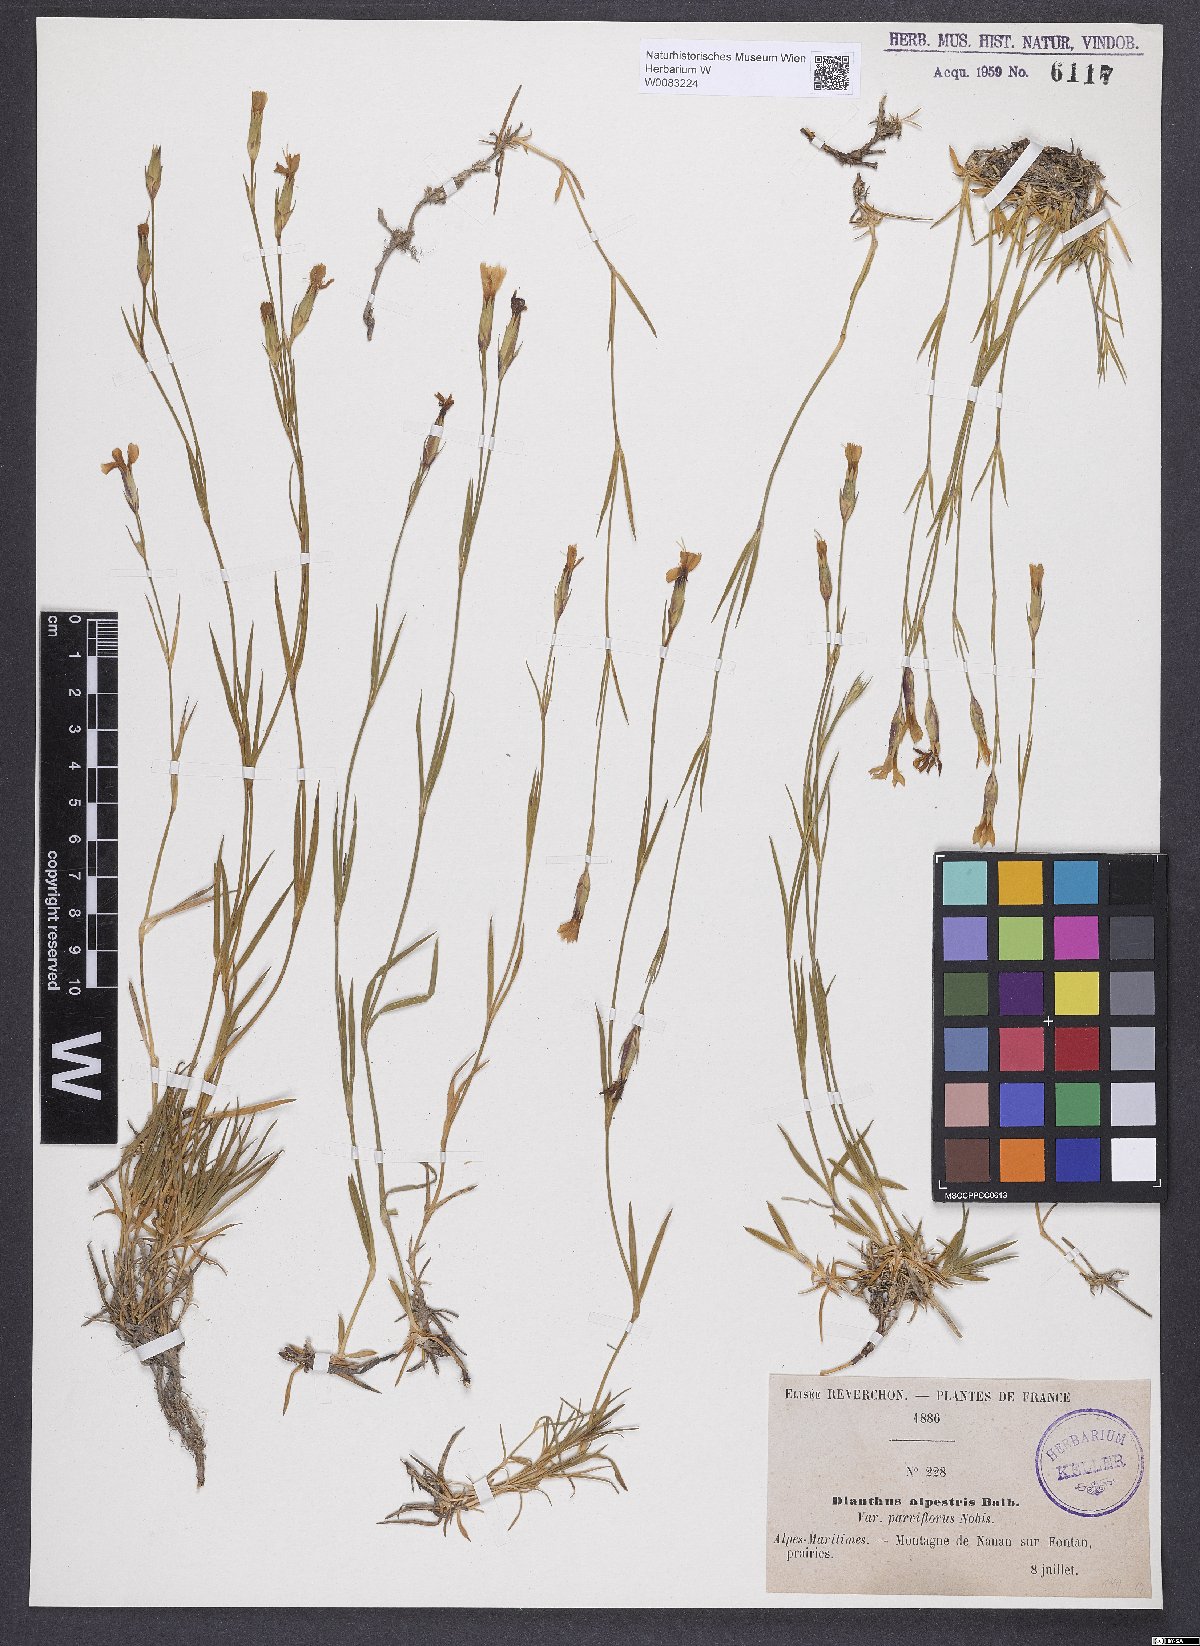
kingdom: Plantae
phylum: Tracheophyta
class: Magnoliopsida
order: Caryophyllales
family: Caryophyllaceae
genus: Dianthus
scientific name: Dianthus furcatus
